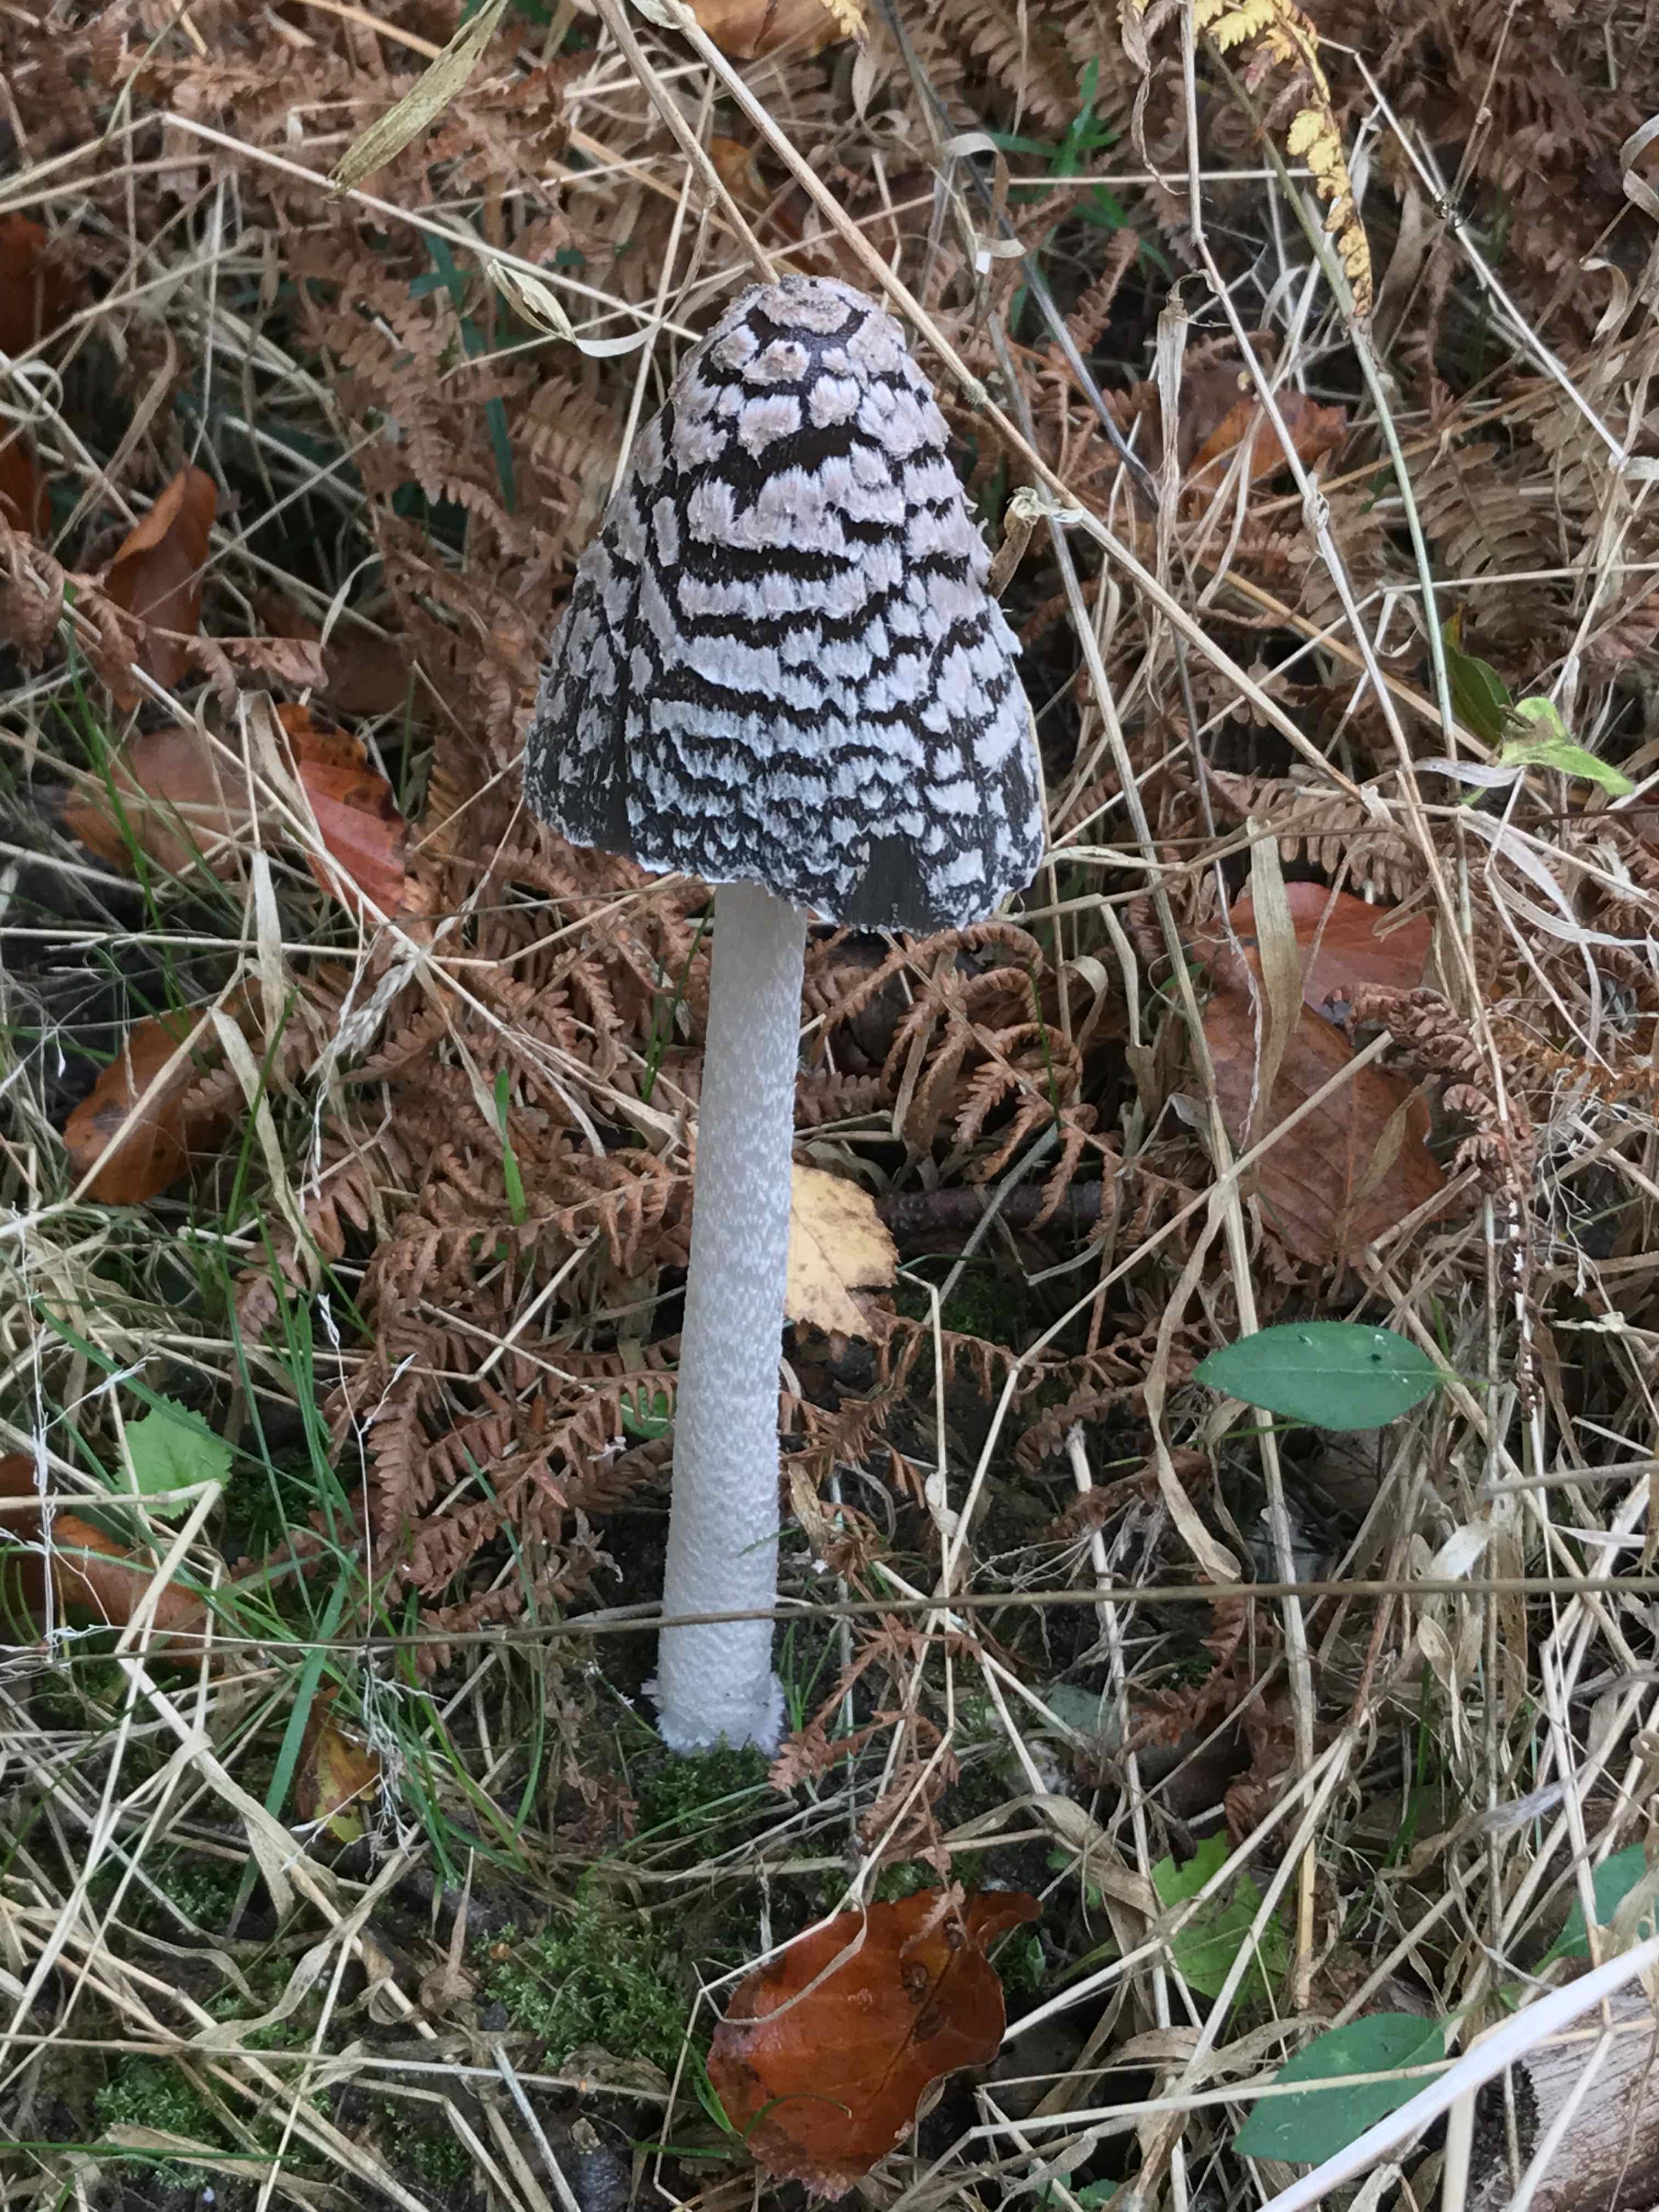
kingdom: Fungi
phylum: Basidiomycota
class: Agaricomycetes
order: Agaricales
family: Psathyrellaceae
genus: Coprinopsis
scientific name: Coprinopsis picacea
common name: skade-blækhat
